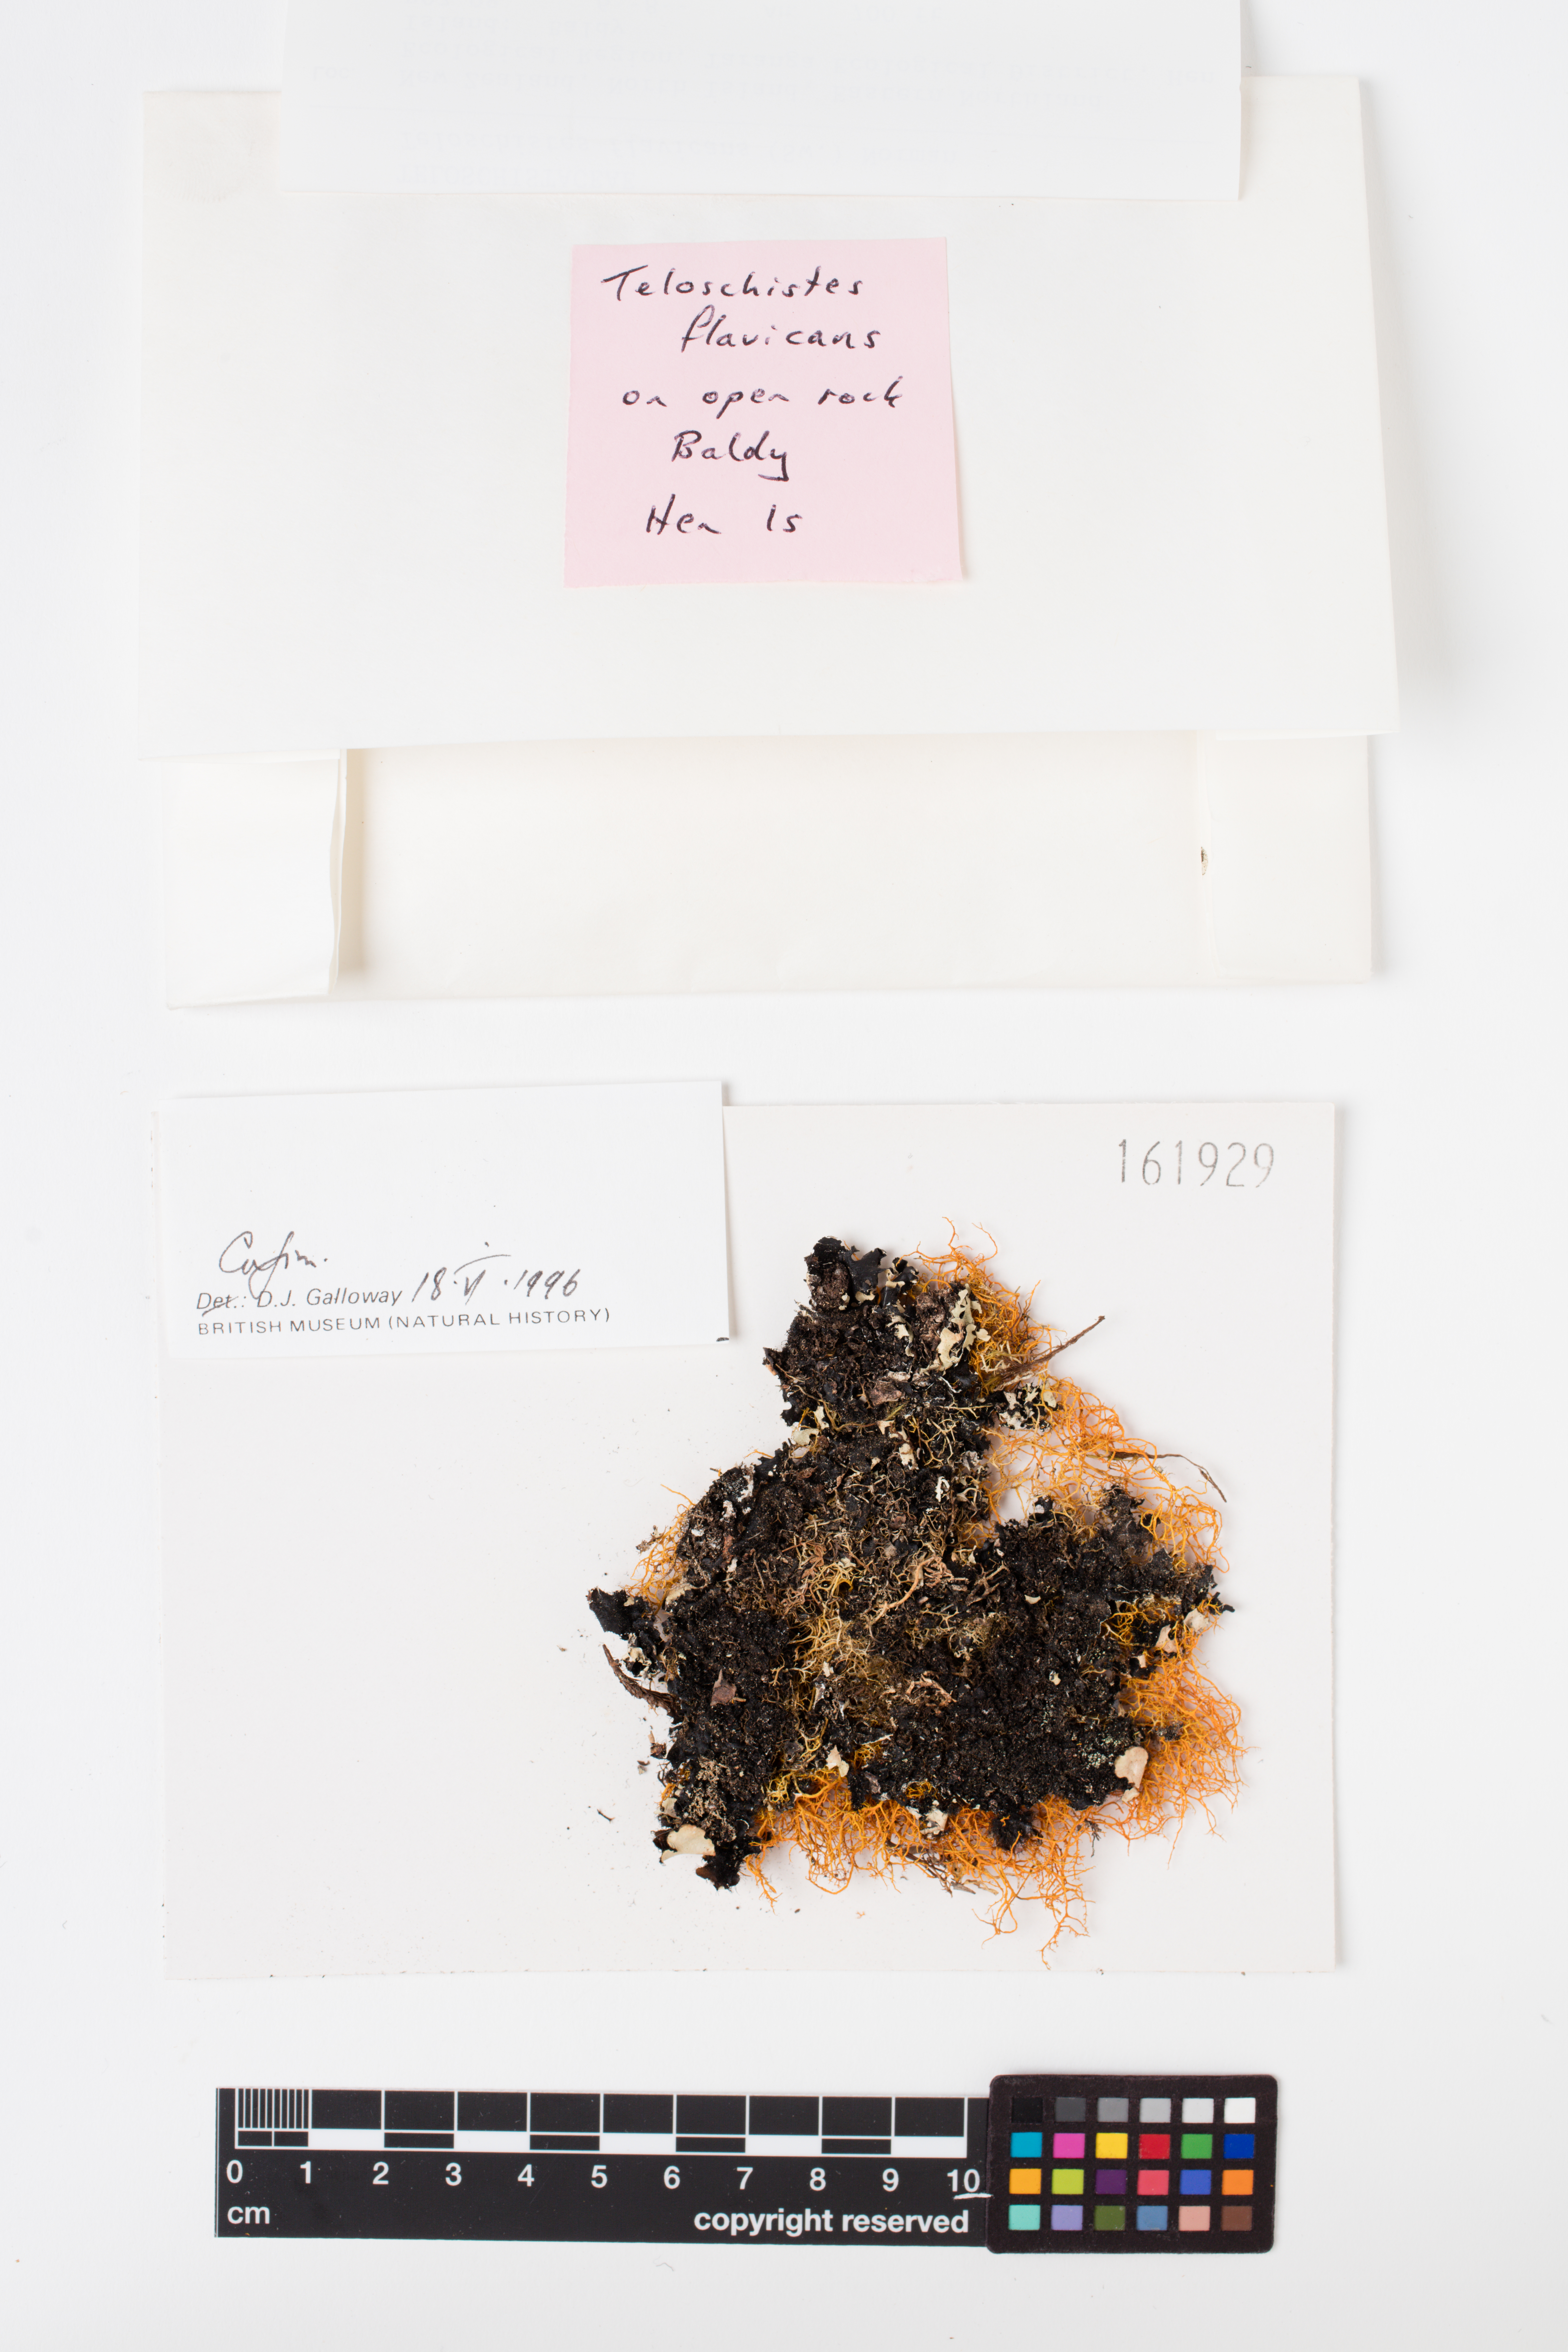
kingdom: Fungi
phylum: Ascomycota
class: Lecanoromycetes
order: Teloschistales
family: Teloschistaceae
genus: Teloschistes
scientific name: Teloschistes flavicans
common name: Golden hair-lichen
